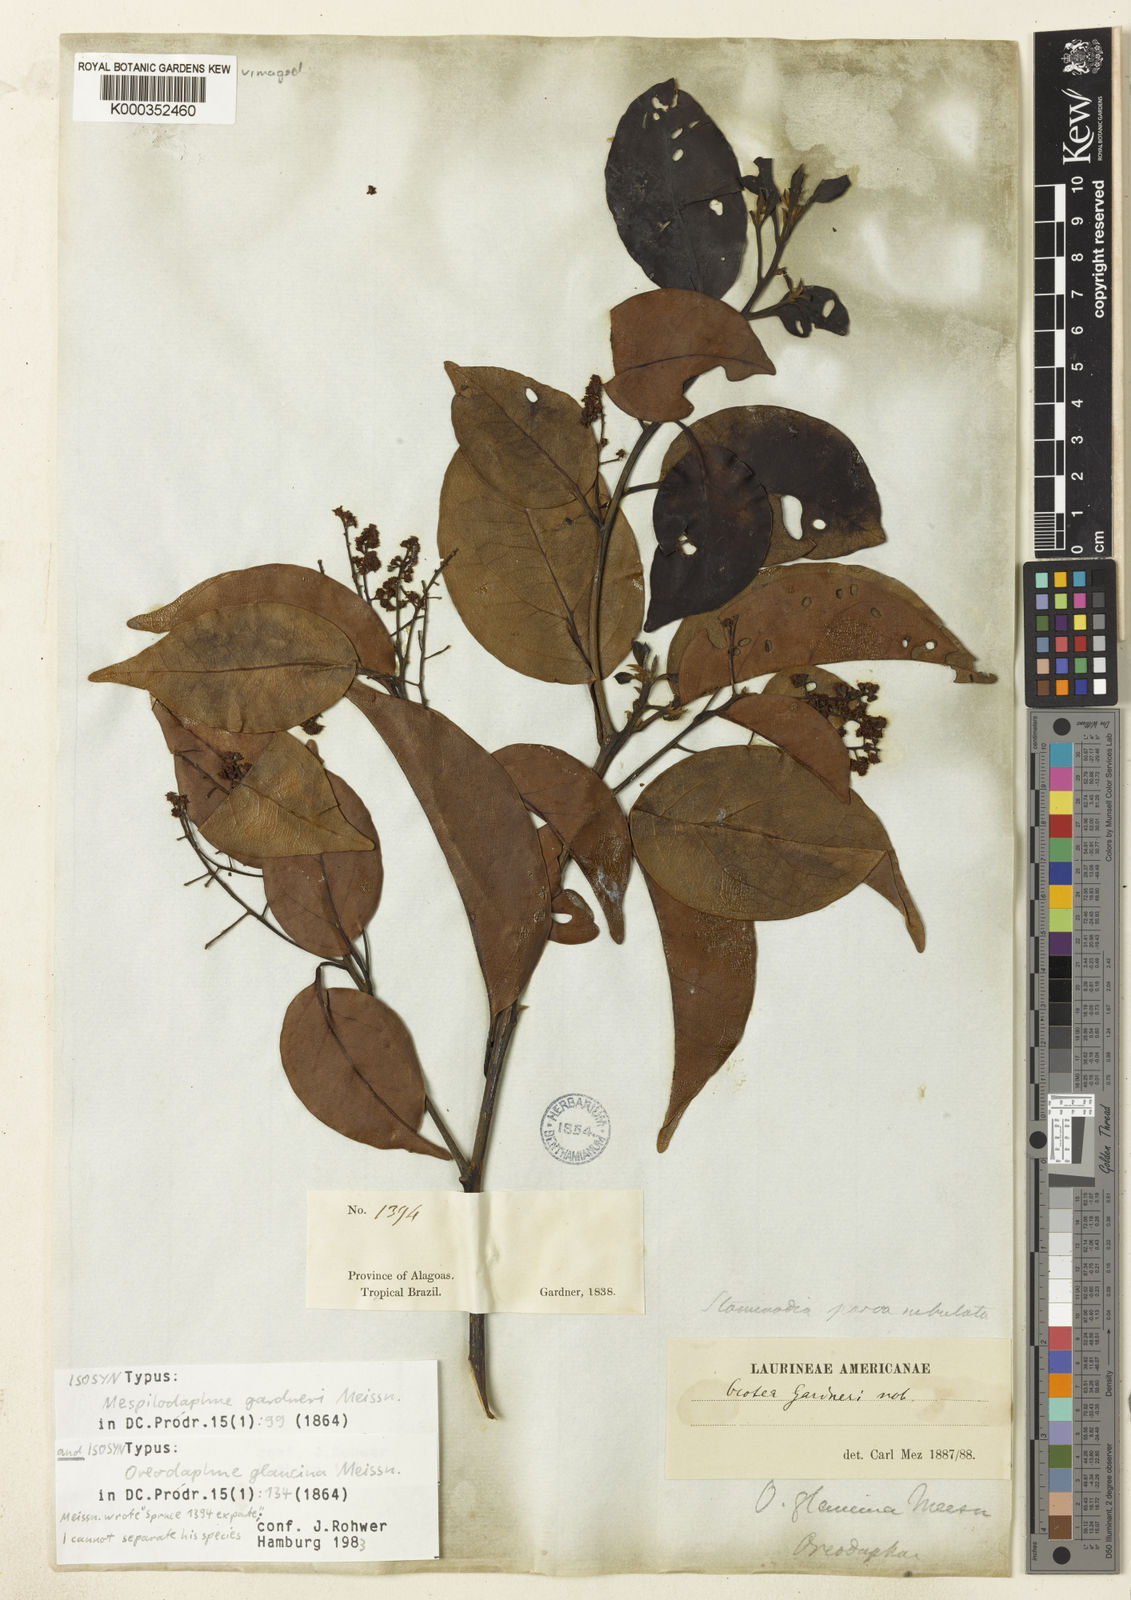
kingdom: Plantae
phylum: Tracheophyta
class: Magnoliopsida
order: Laurales
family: Lauraceae
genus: Mespilodaphne
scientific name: Mespilodaphne notata
